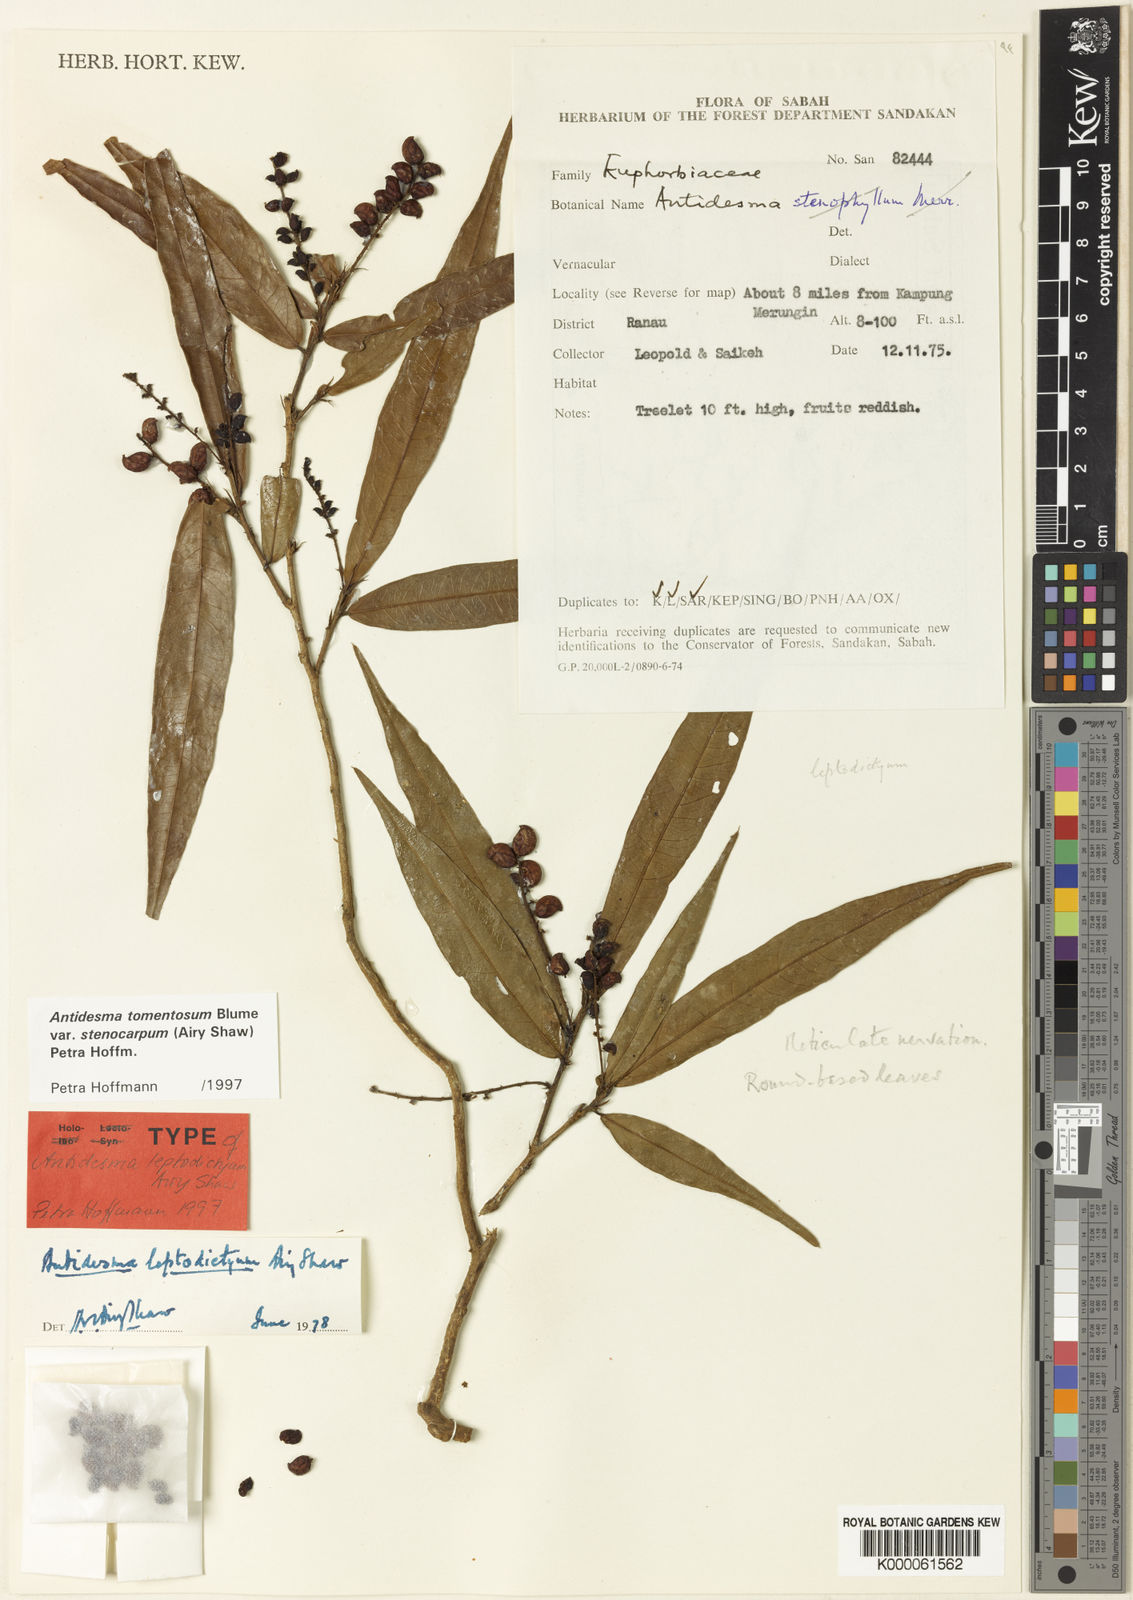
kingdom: Plantae
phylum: Tracheophyta
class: Magnoliopsida
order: Malpighiales
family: Phyllanthaceae
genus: Antidesma
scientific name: Antidesma tomentosum
